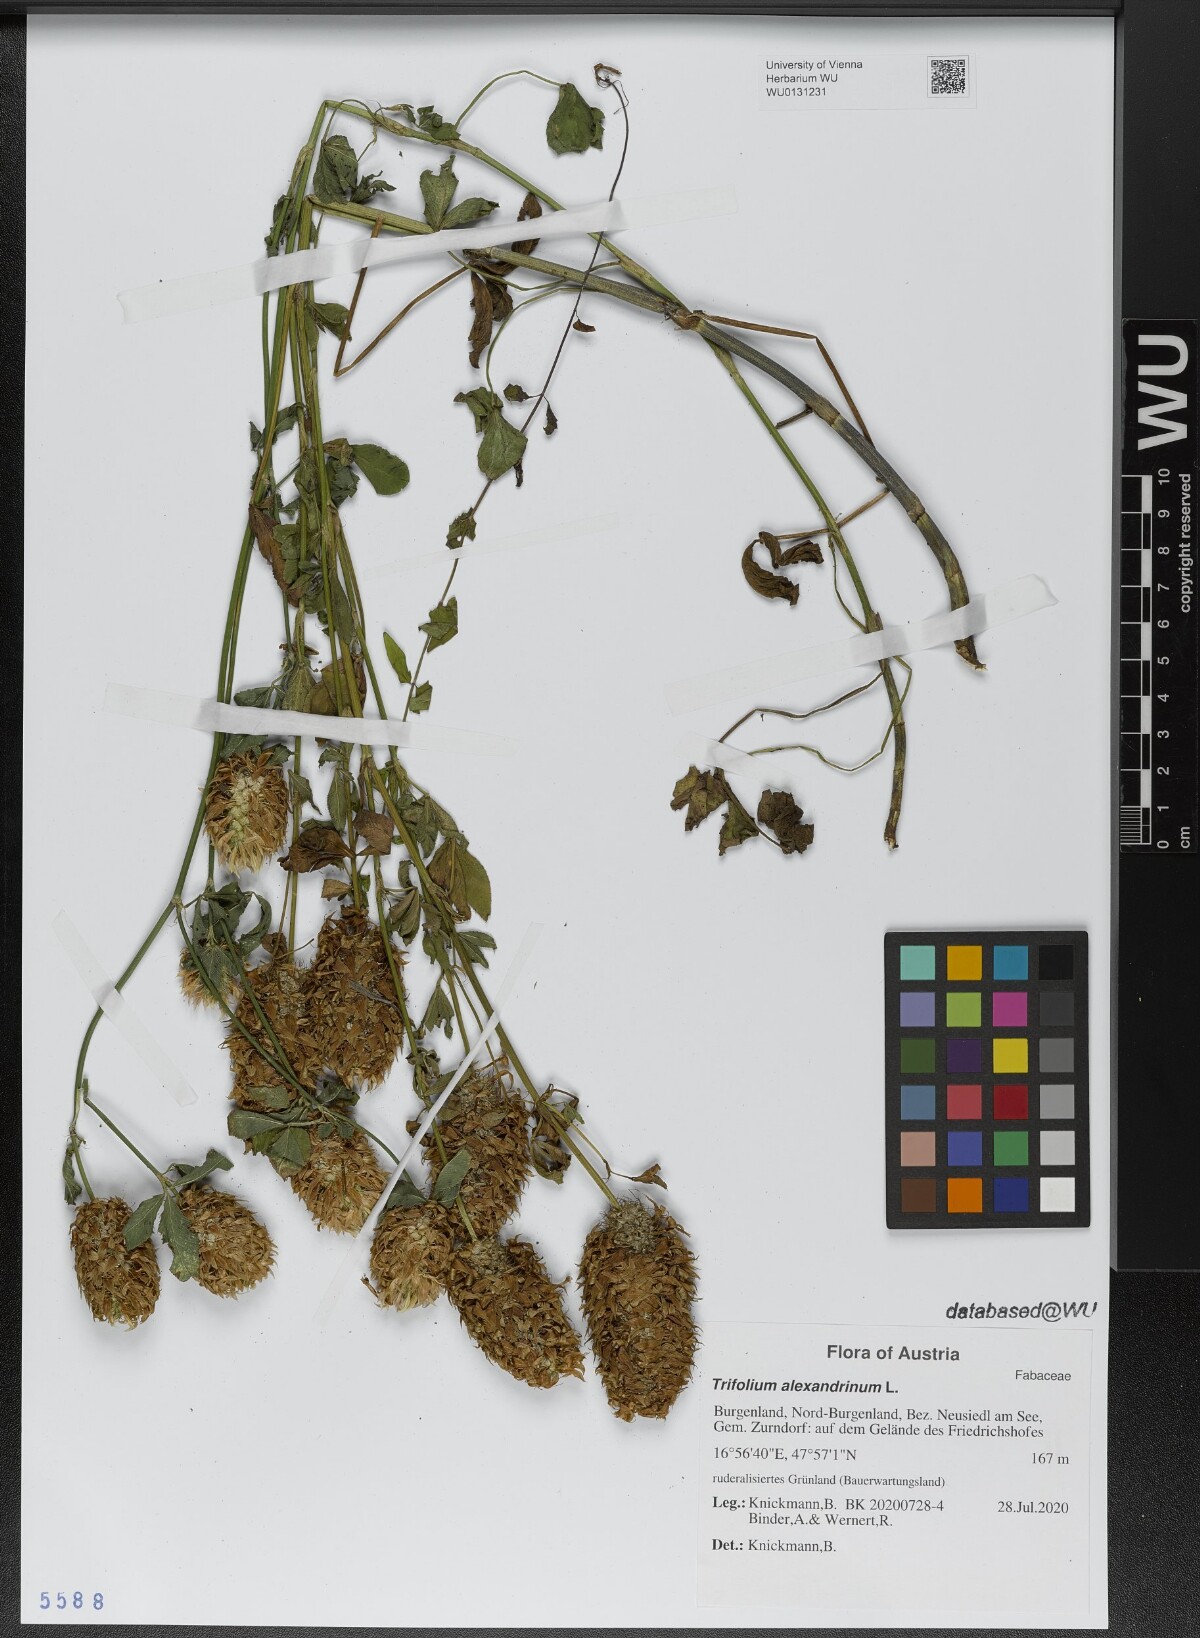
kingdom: Plantae
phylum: Tracheophyta
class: Magnoliopsida
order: Fabales
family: Fabaceae
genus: Trifolium
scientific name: Trifolium alexandrinum
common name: Egyptian clover
